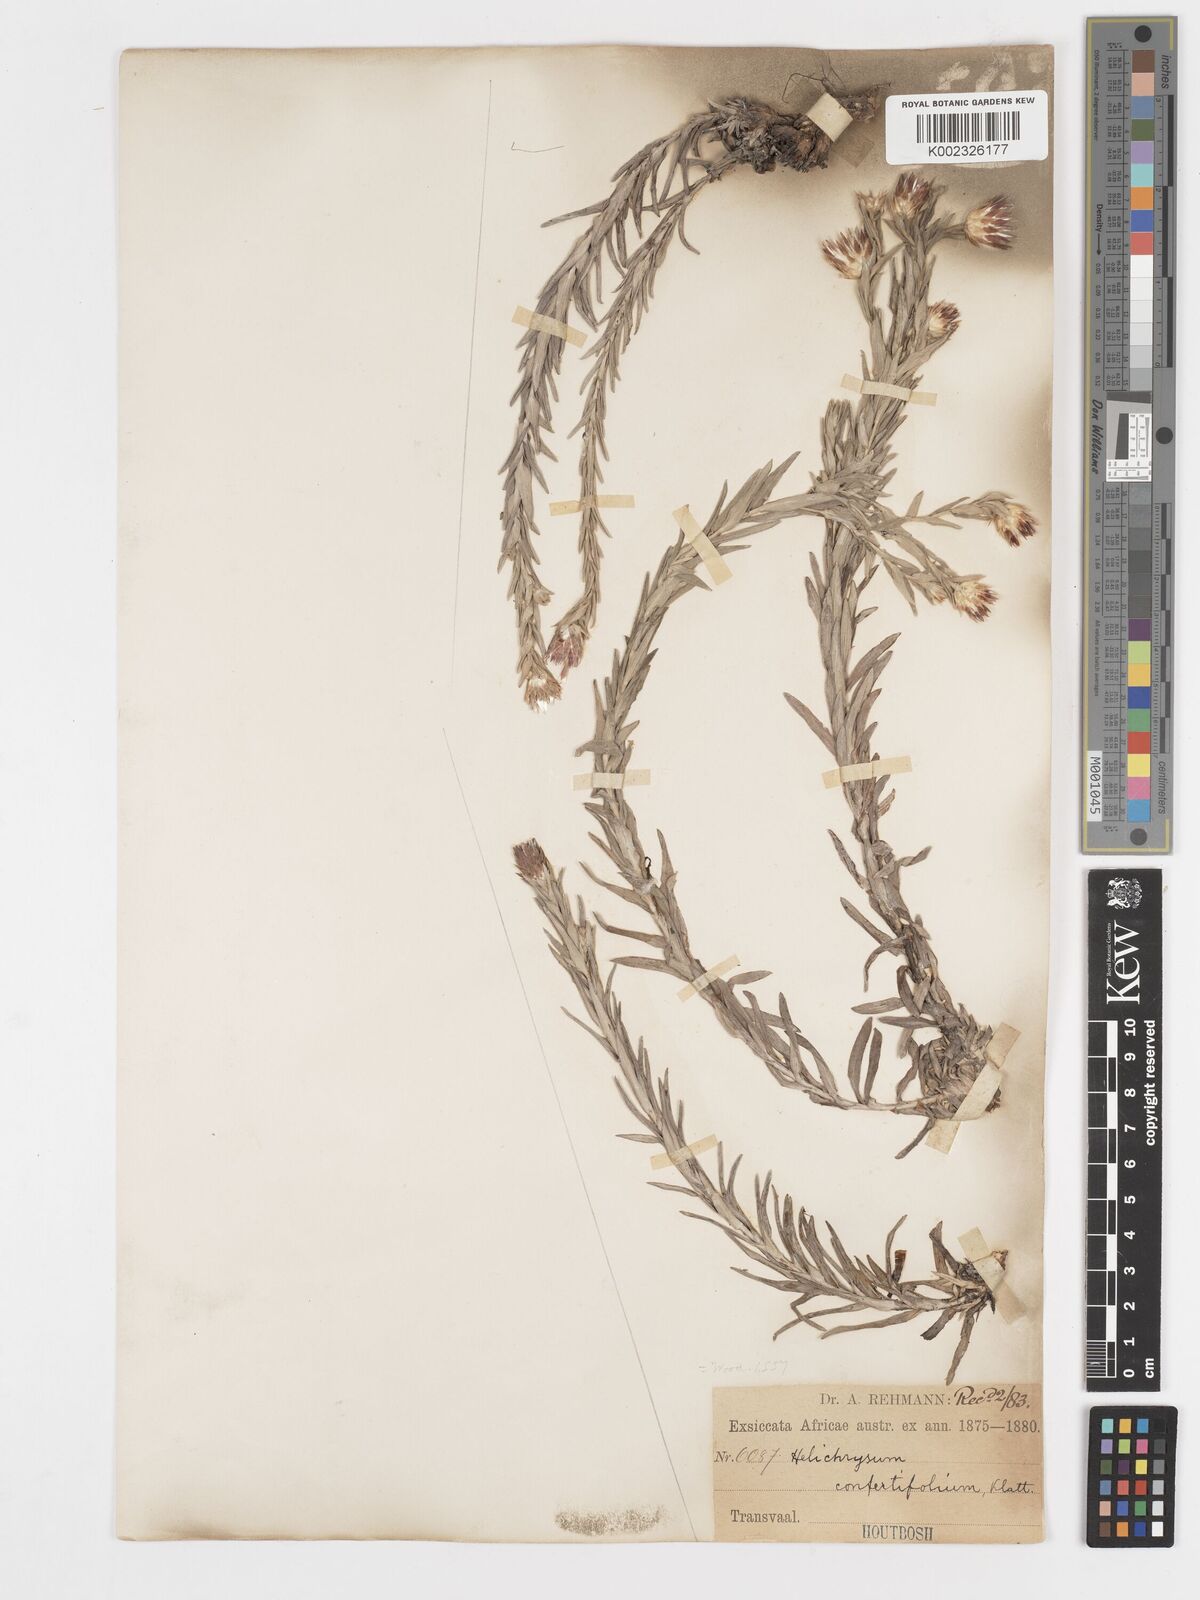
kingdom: Plantae
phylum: Tracheophyta
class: Magnoliopsida
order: Asterales
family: Asteraceae
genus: Helichrysum
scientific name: Helichrysum confertifolium
